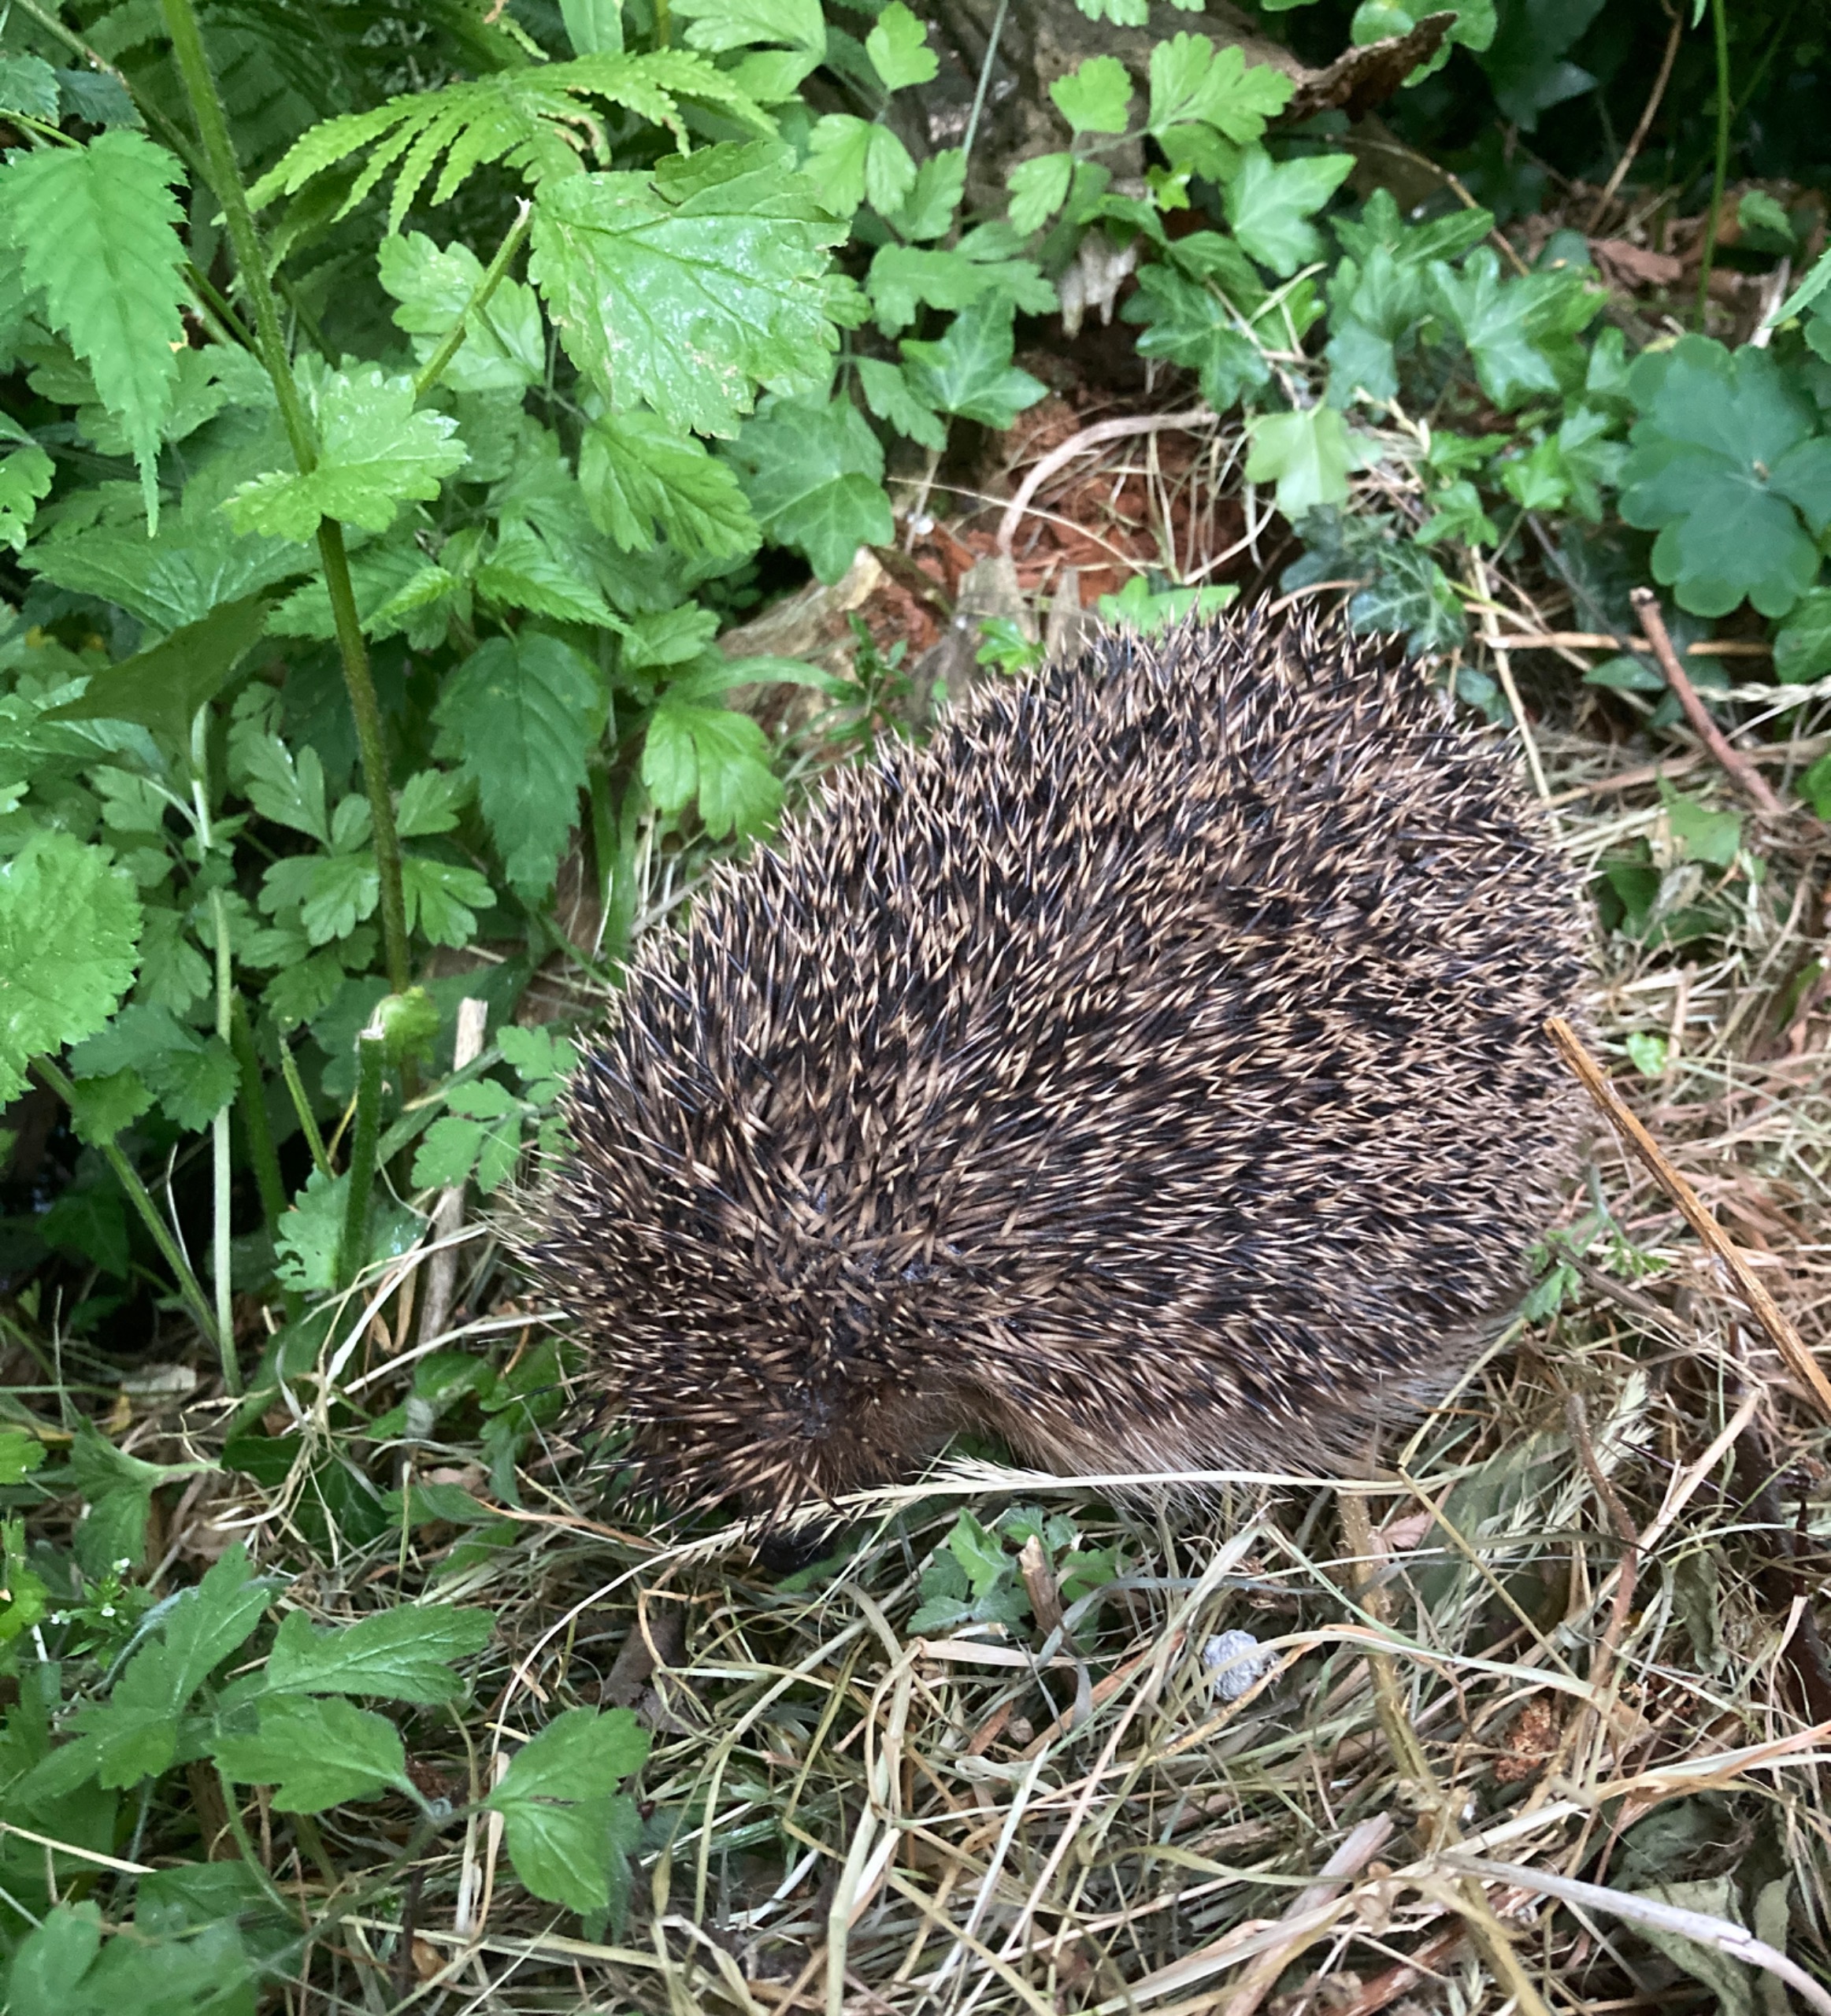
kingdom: Animalia
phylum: Chordata
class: Mammalia
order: Erinaceomorpha
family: Erinaceidae
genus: Erinaceus
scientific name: Erinaceus europaeus
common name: Pindsvin
